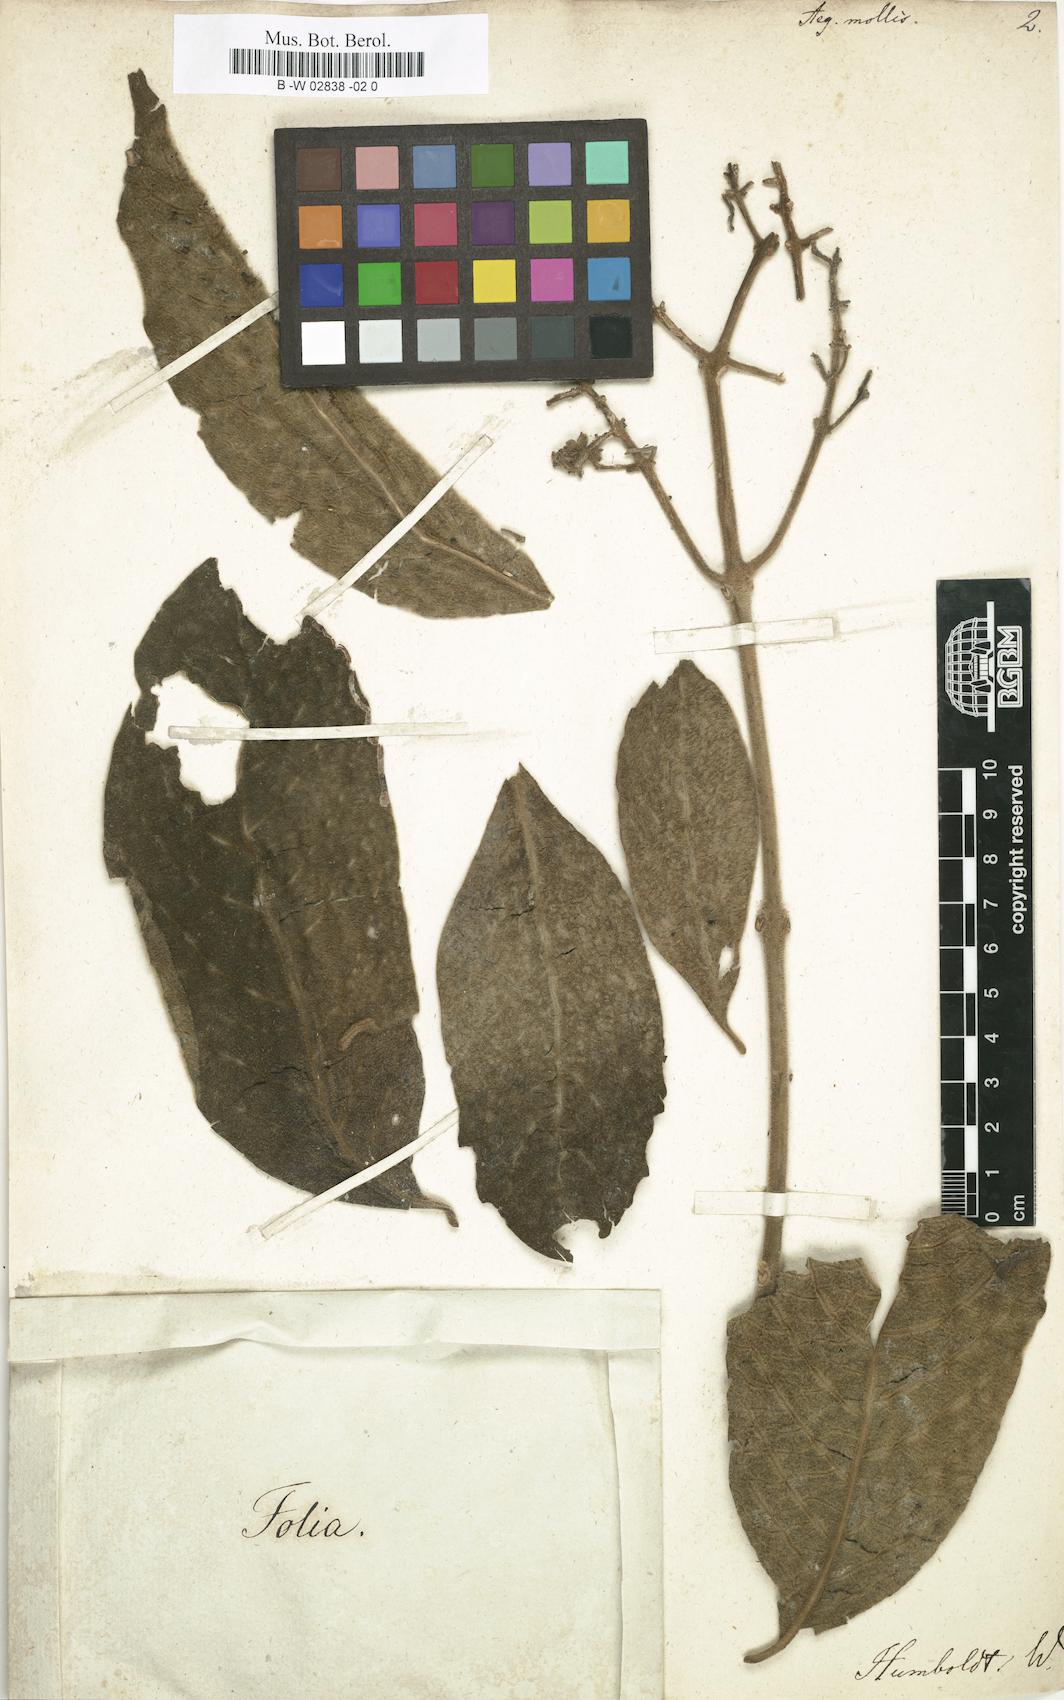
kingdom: Plantae
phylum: Tracheophyta
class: Magnoliopsida
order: Lamiales
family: Lamiaceae
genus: Aegiphila
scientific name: Aegiphila mollis
